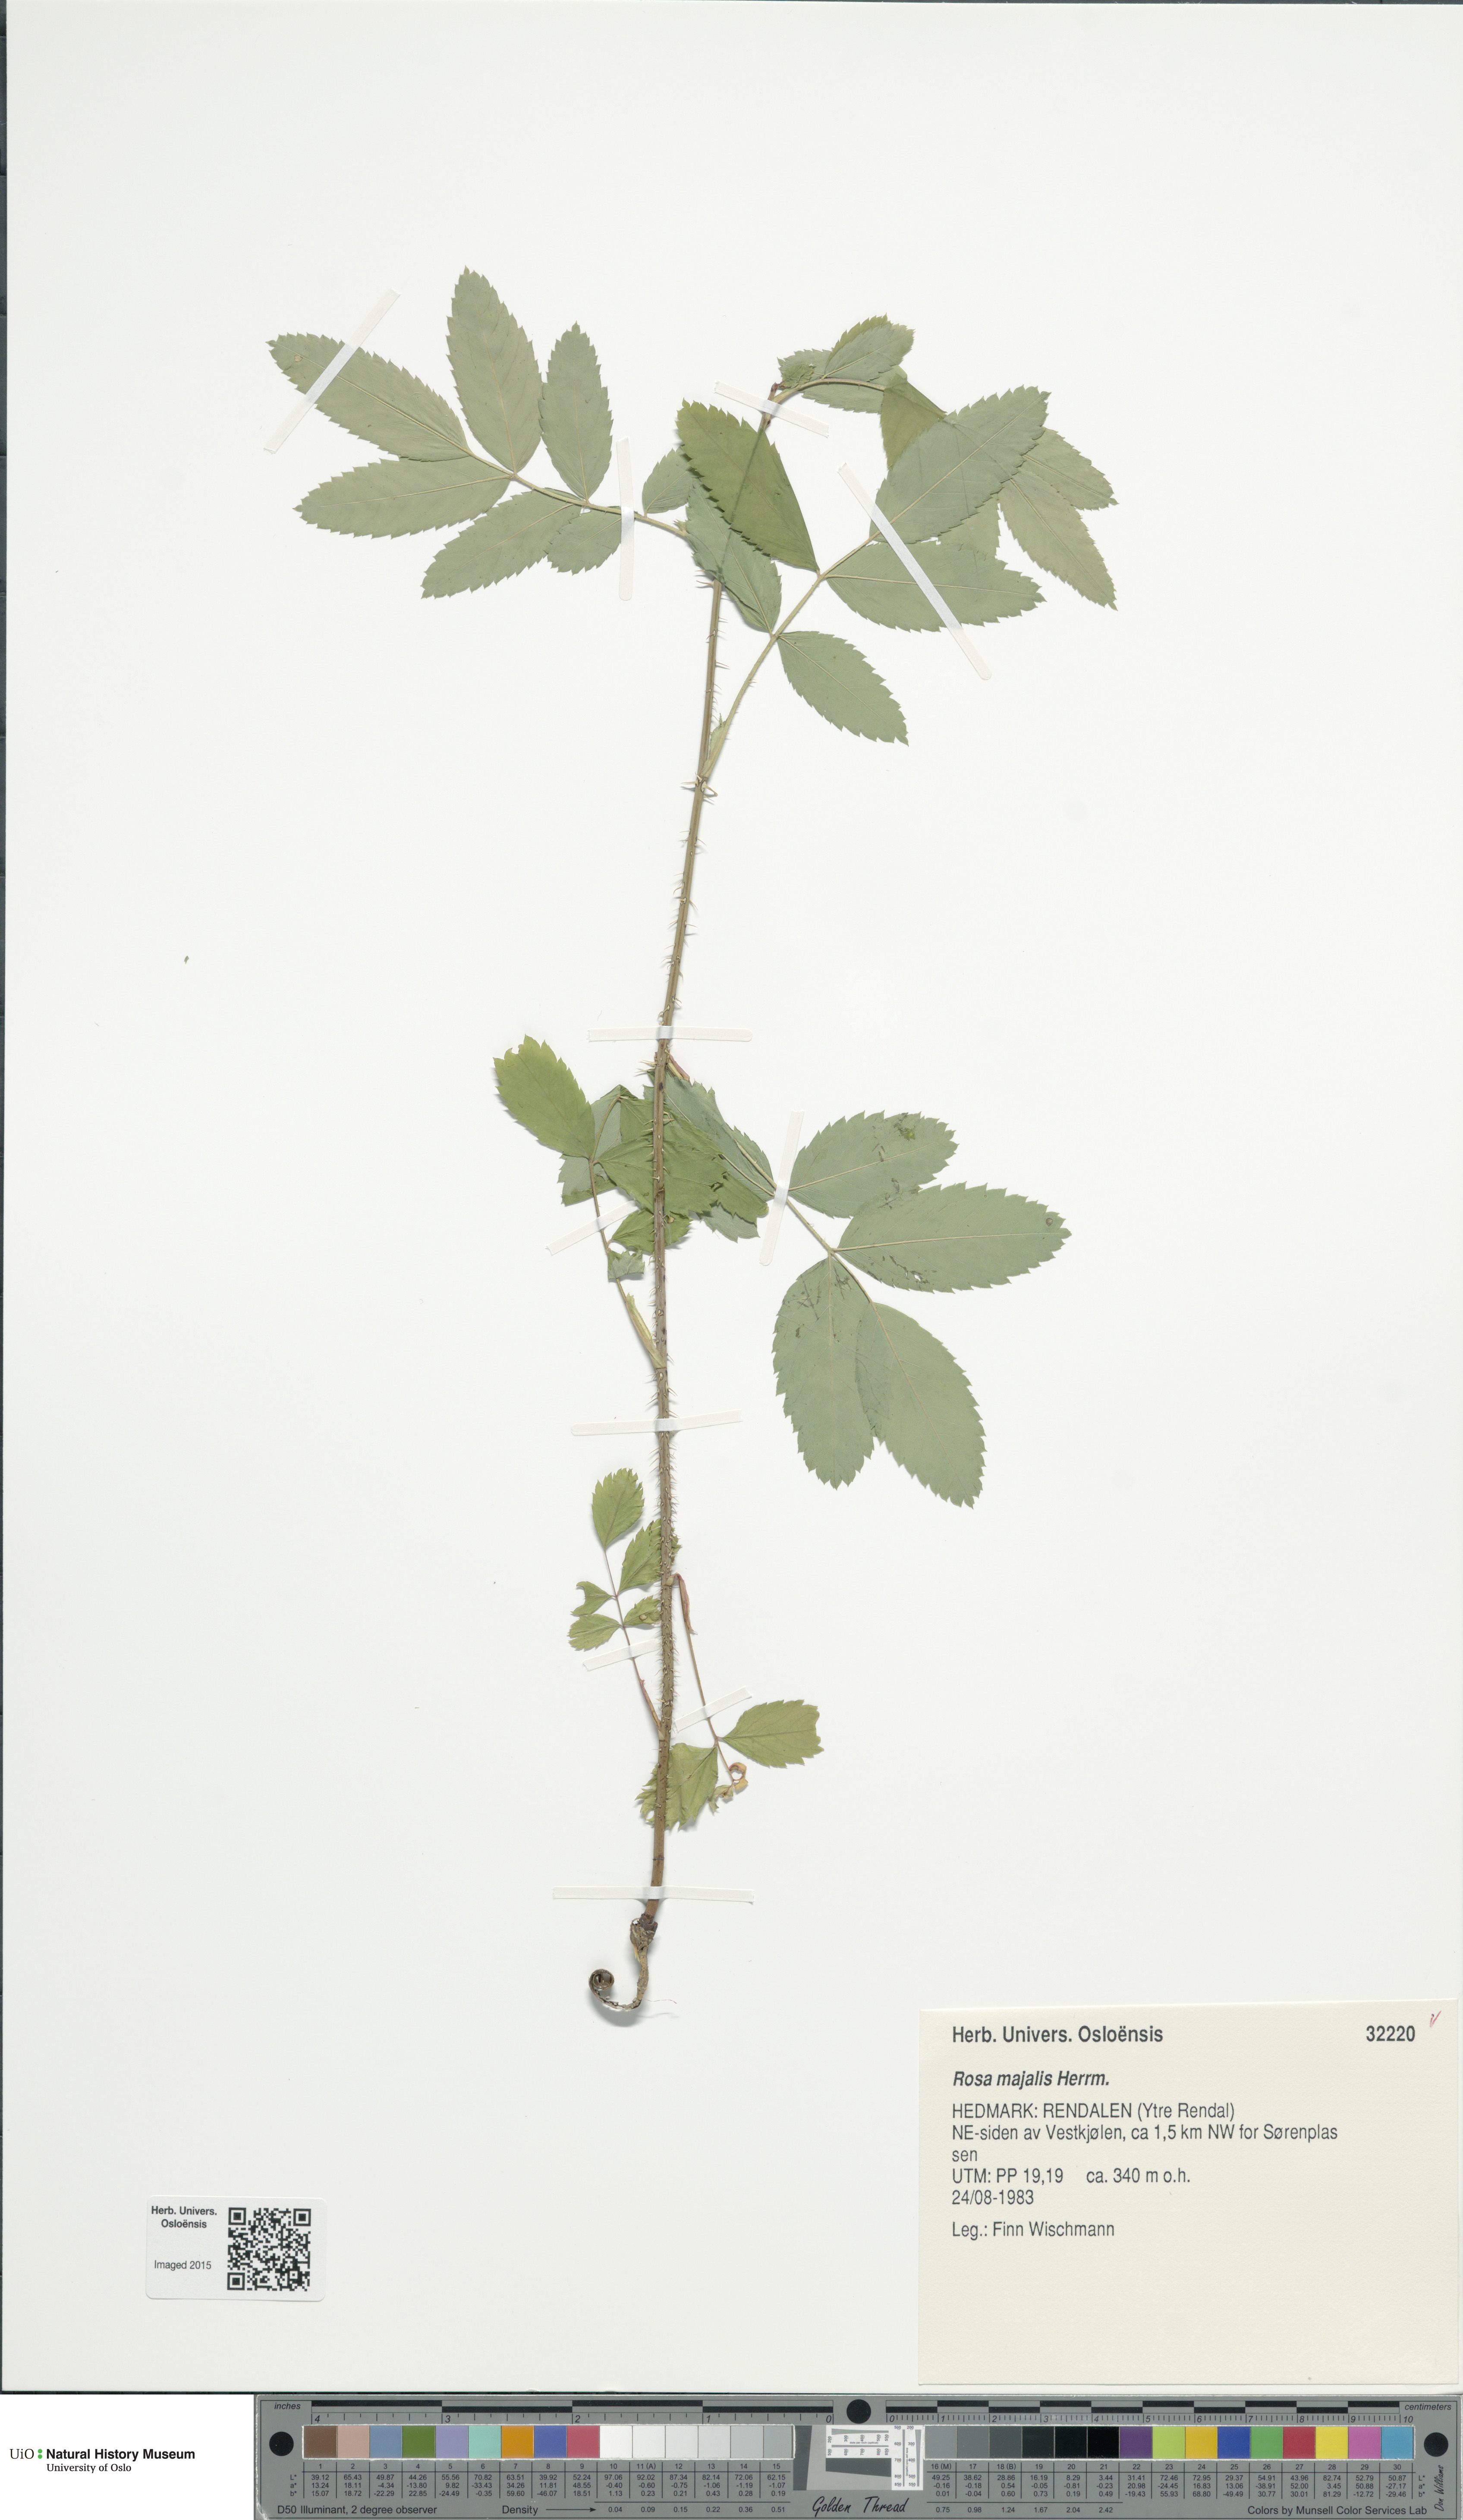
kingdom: Plantae
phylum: Tracheophyta
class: Magnoliopsida
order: Rosales
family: Rosaceae
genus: Rosa
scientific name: Rosa majalis
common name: Cinnamon rose
